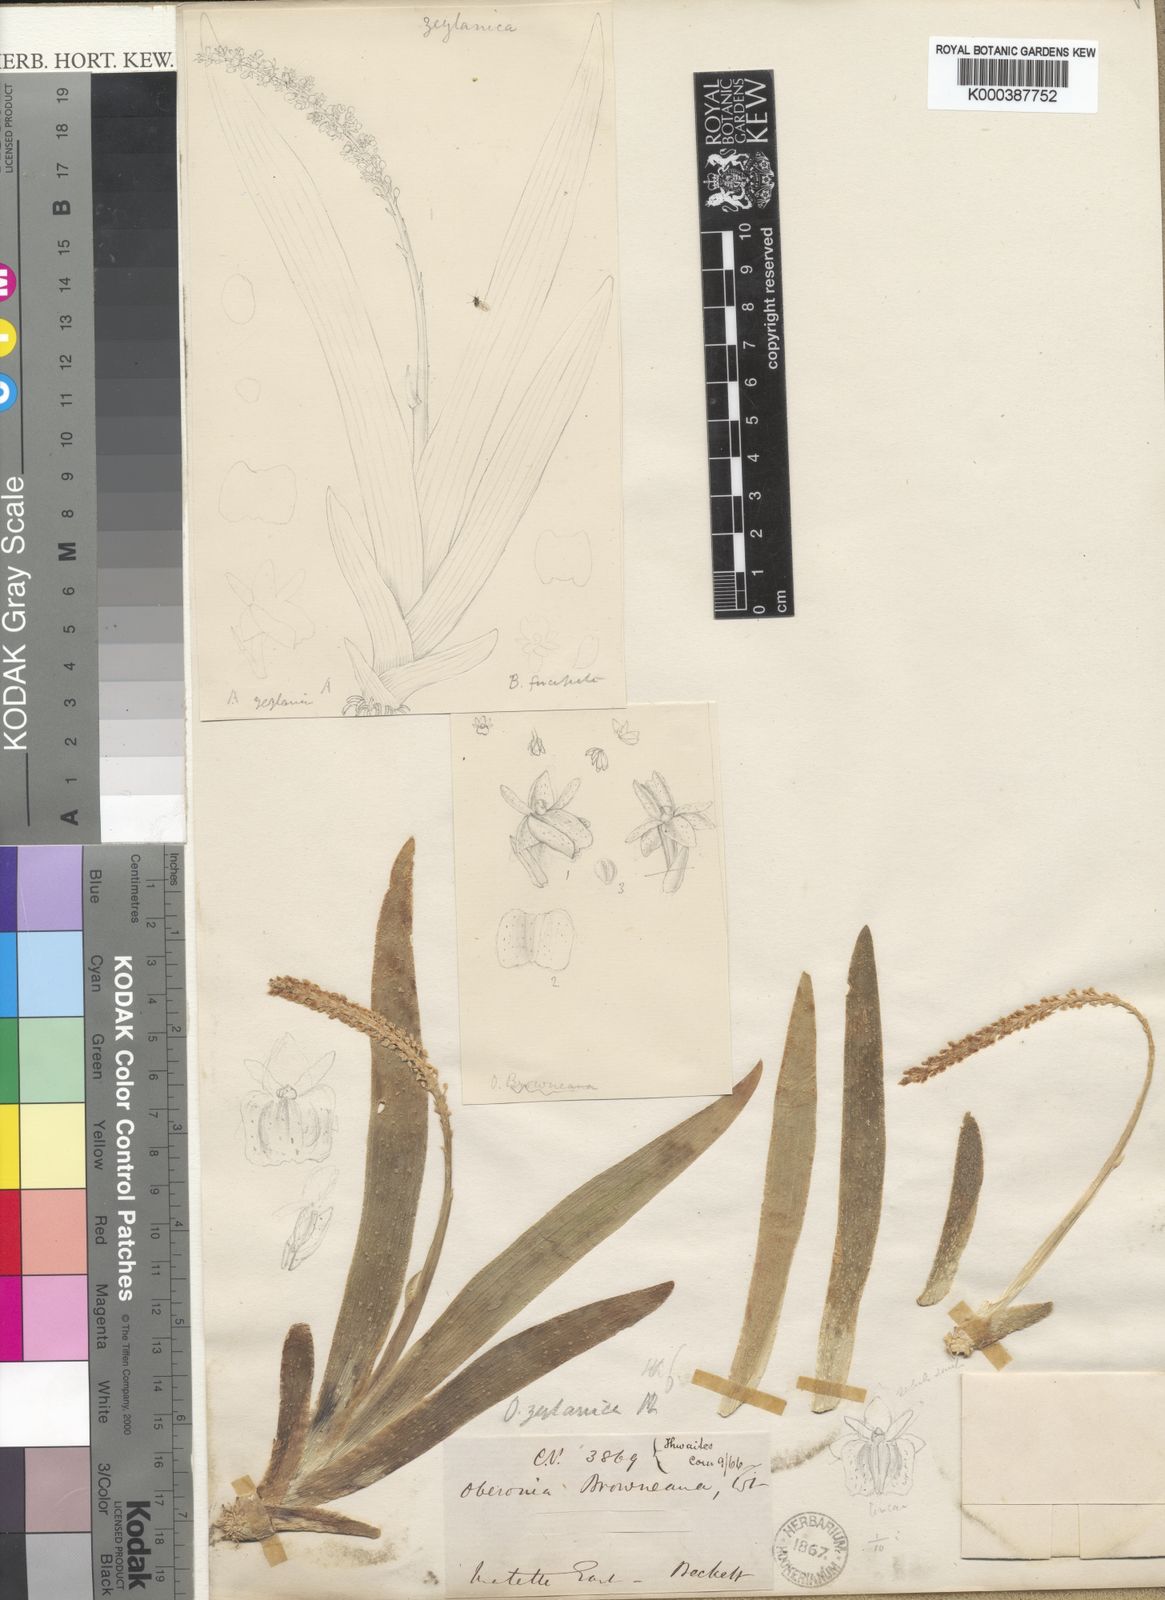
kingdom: Plantae
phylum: Tracheophyta
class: Liliopsida
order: Asparagales
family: Orchidaceae
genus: Oberonia
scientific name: Oberonia zeylanica
